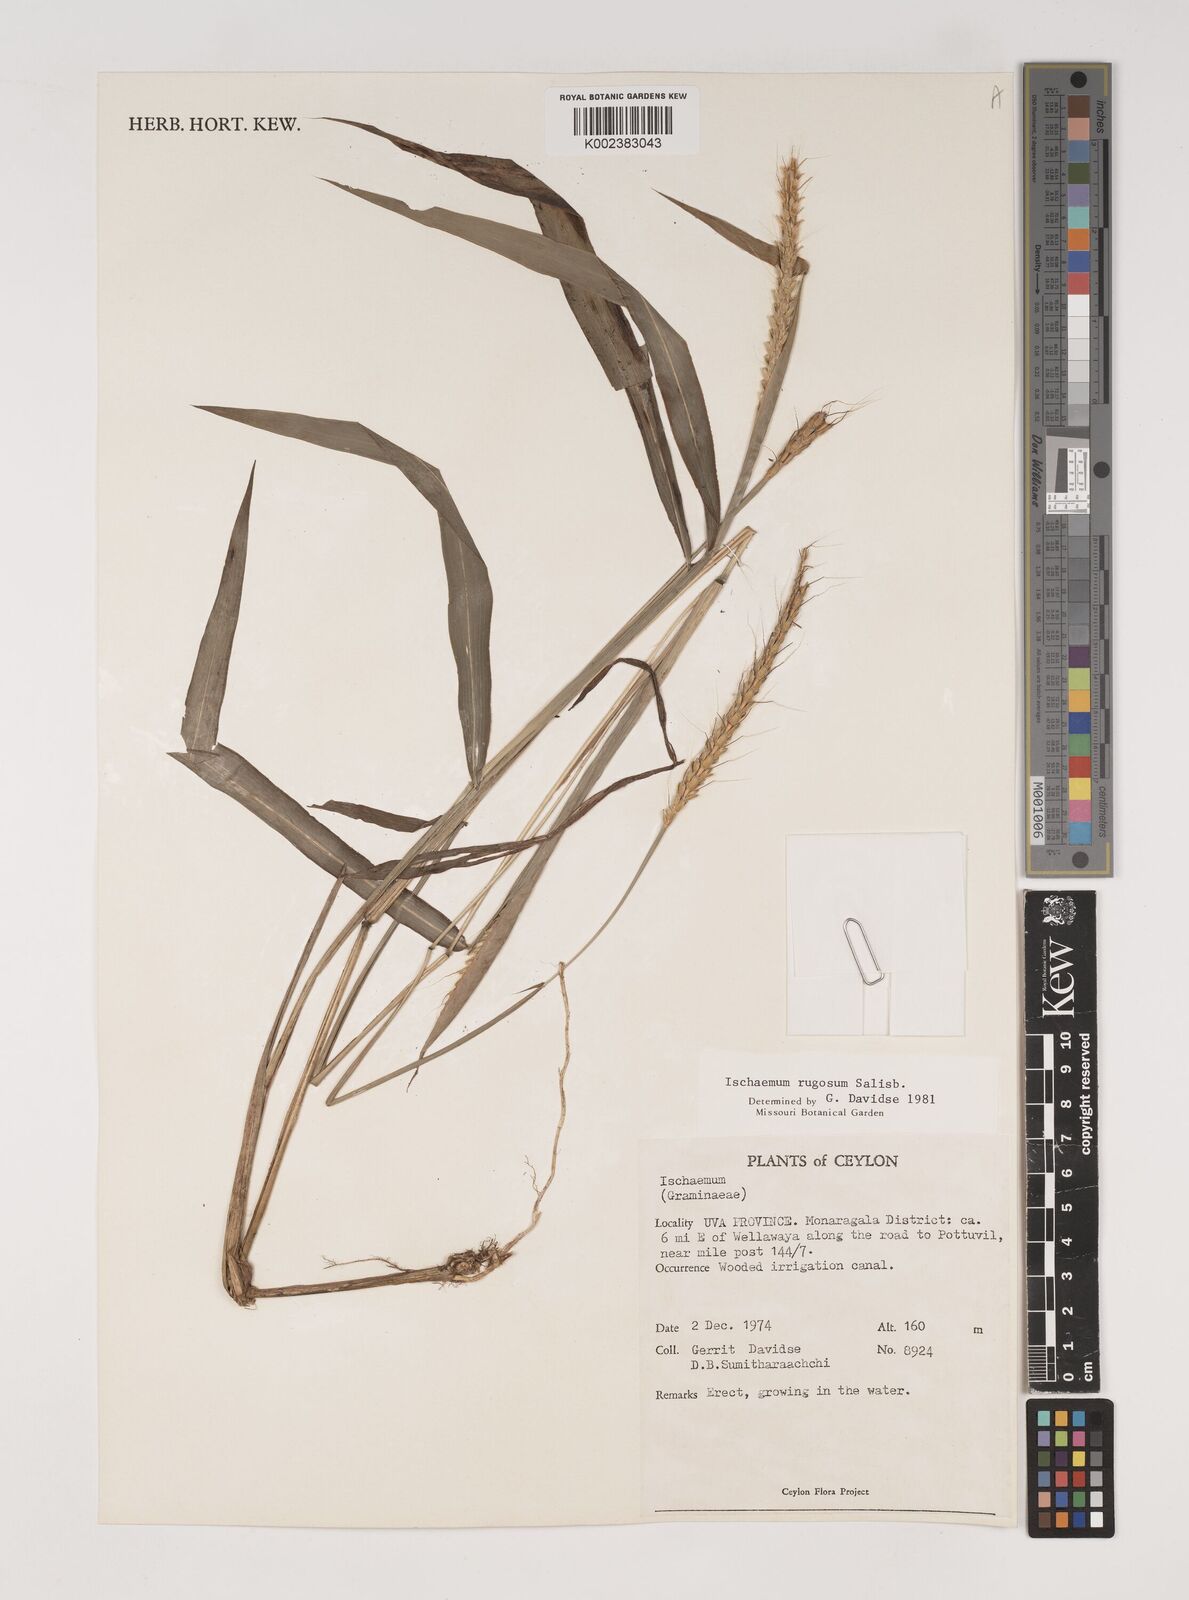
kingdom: Plantae
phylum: Tracheophyta
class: Liliopsida
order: Poales
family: Poaceae
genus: Ischaemum
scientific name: Ischaemum rugosum
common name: Saramatta grass
